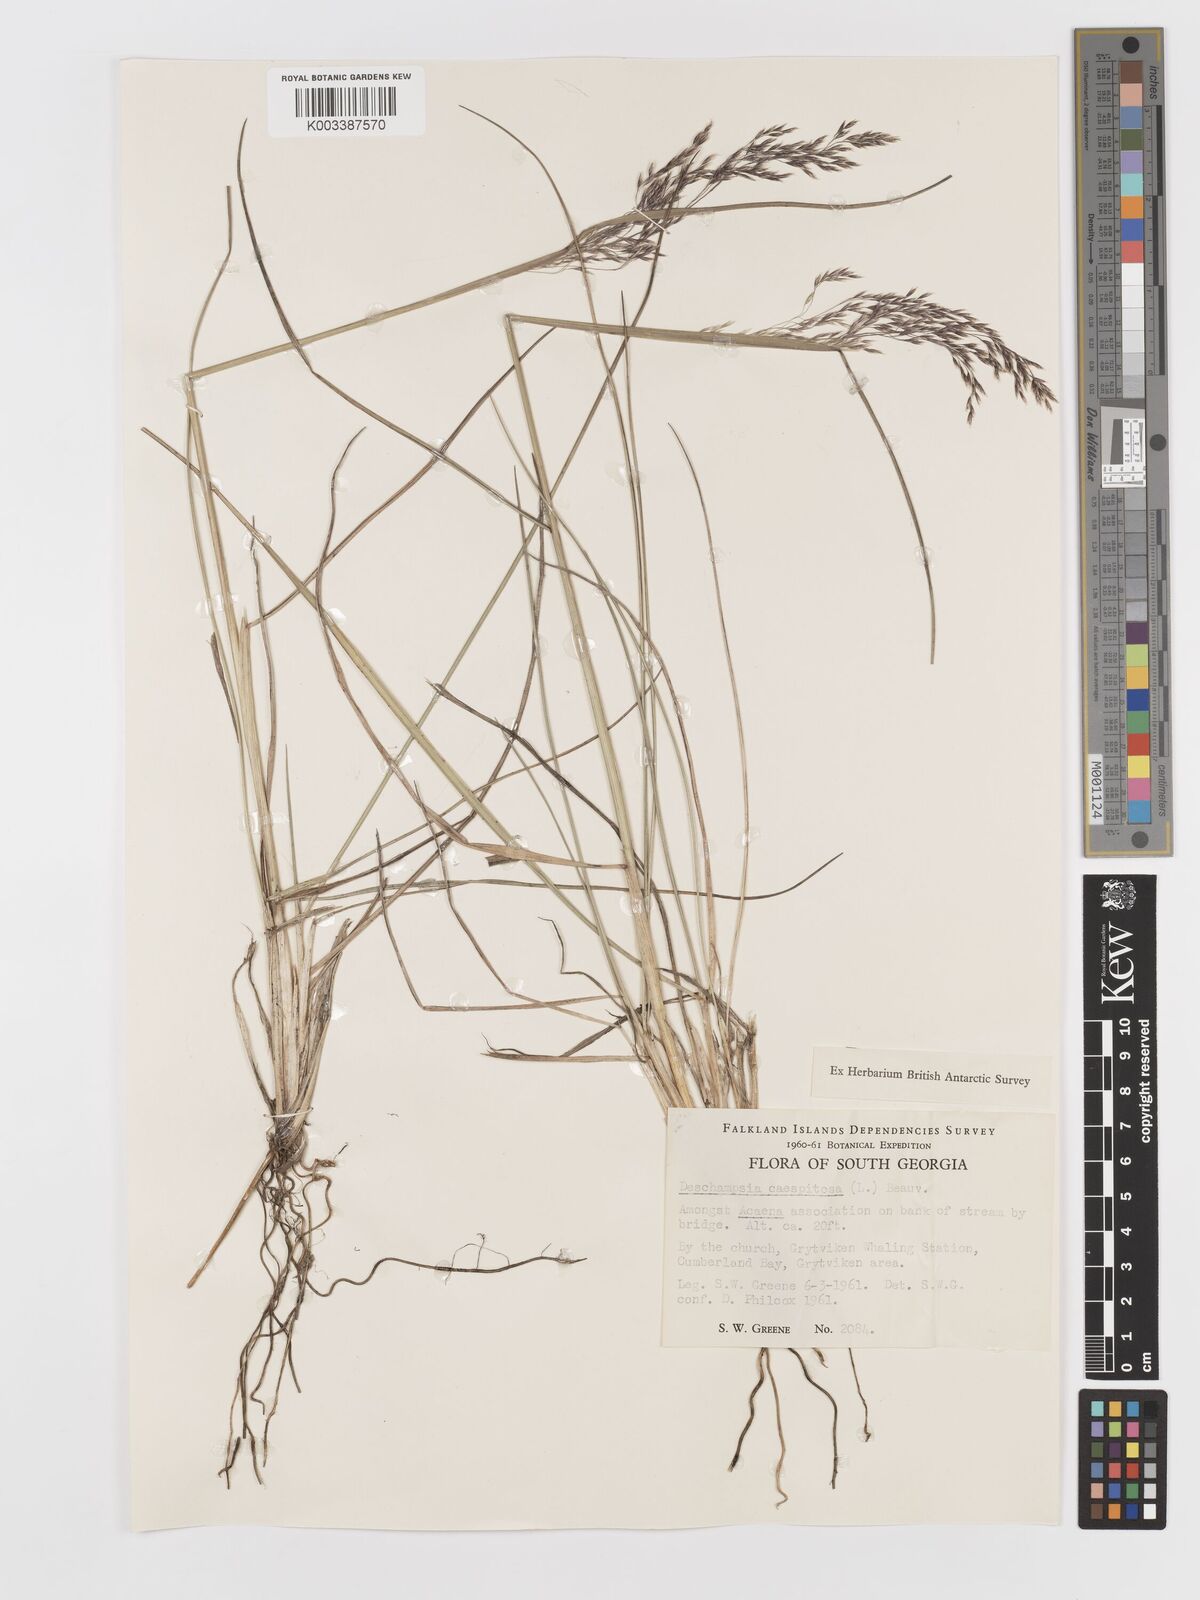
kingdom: Plantae
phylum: Tracheophyta
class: Liliopsida
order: Poales
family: Poaceae
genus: Deschampsia
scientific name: Deschampsia cespitosa
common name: Tufted hair-grass
